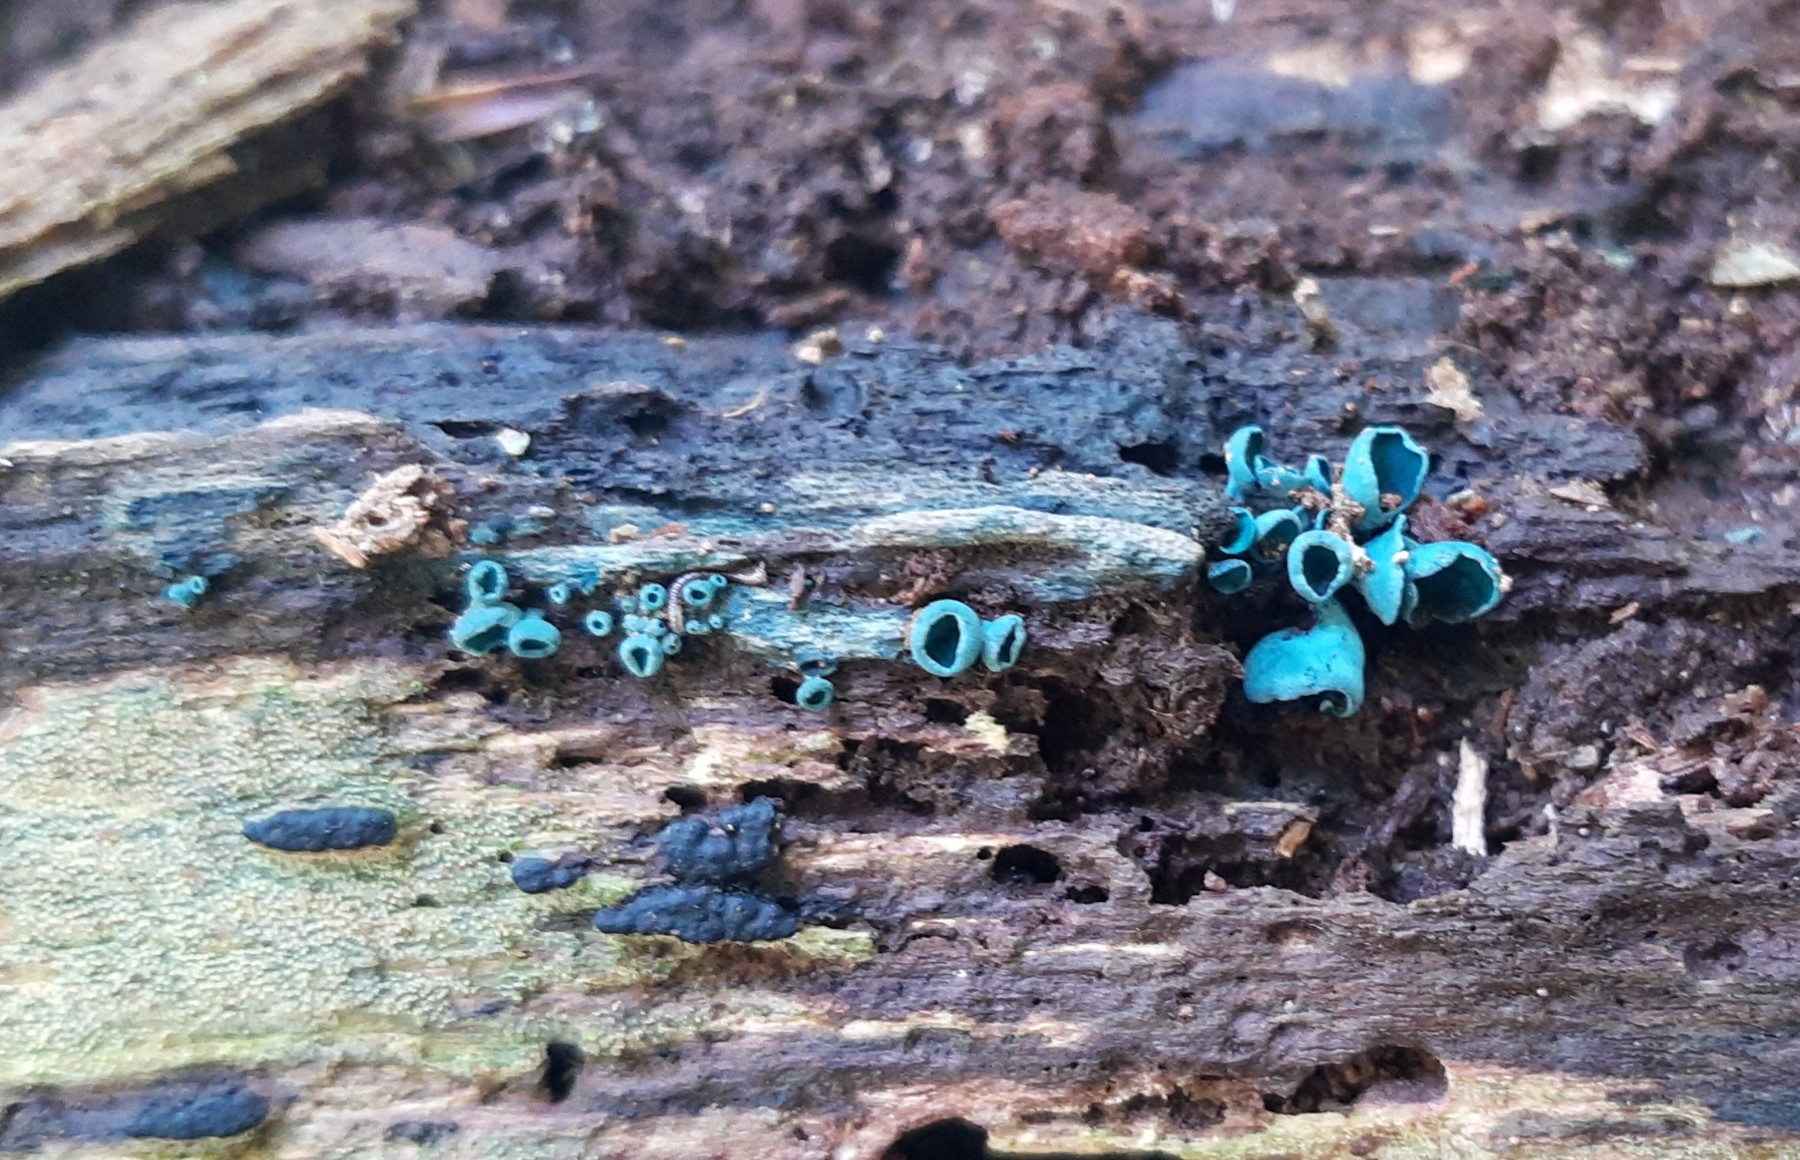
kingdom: Fungi
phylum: Ascomycota
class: Leotiomycetes
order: Helotiales
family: Chlorociboriaceae
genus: Chlorociboria
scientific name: Chlorociboria aeruginascens
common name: almindelig grønskive
